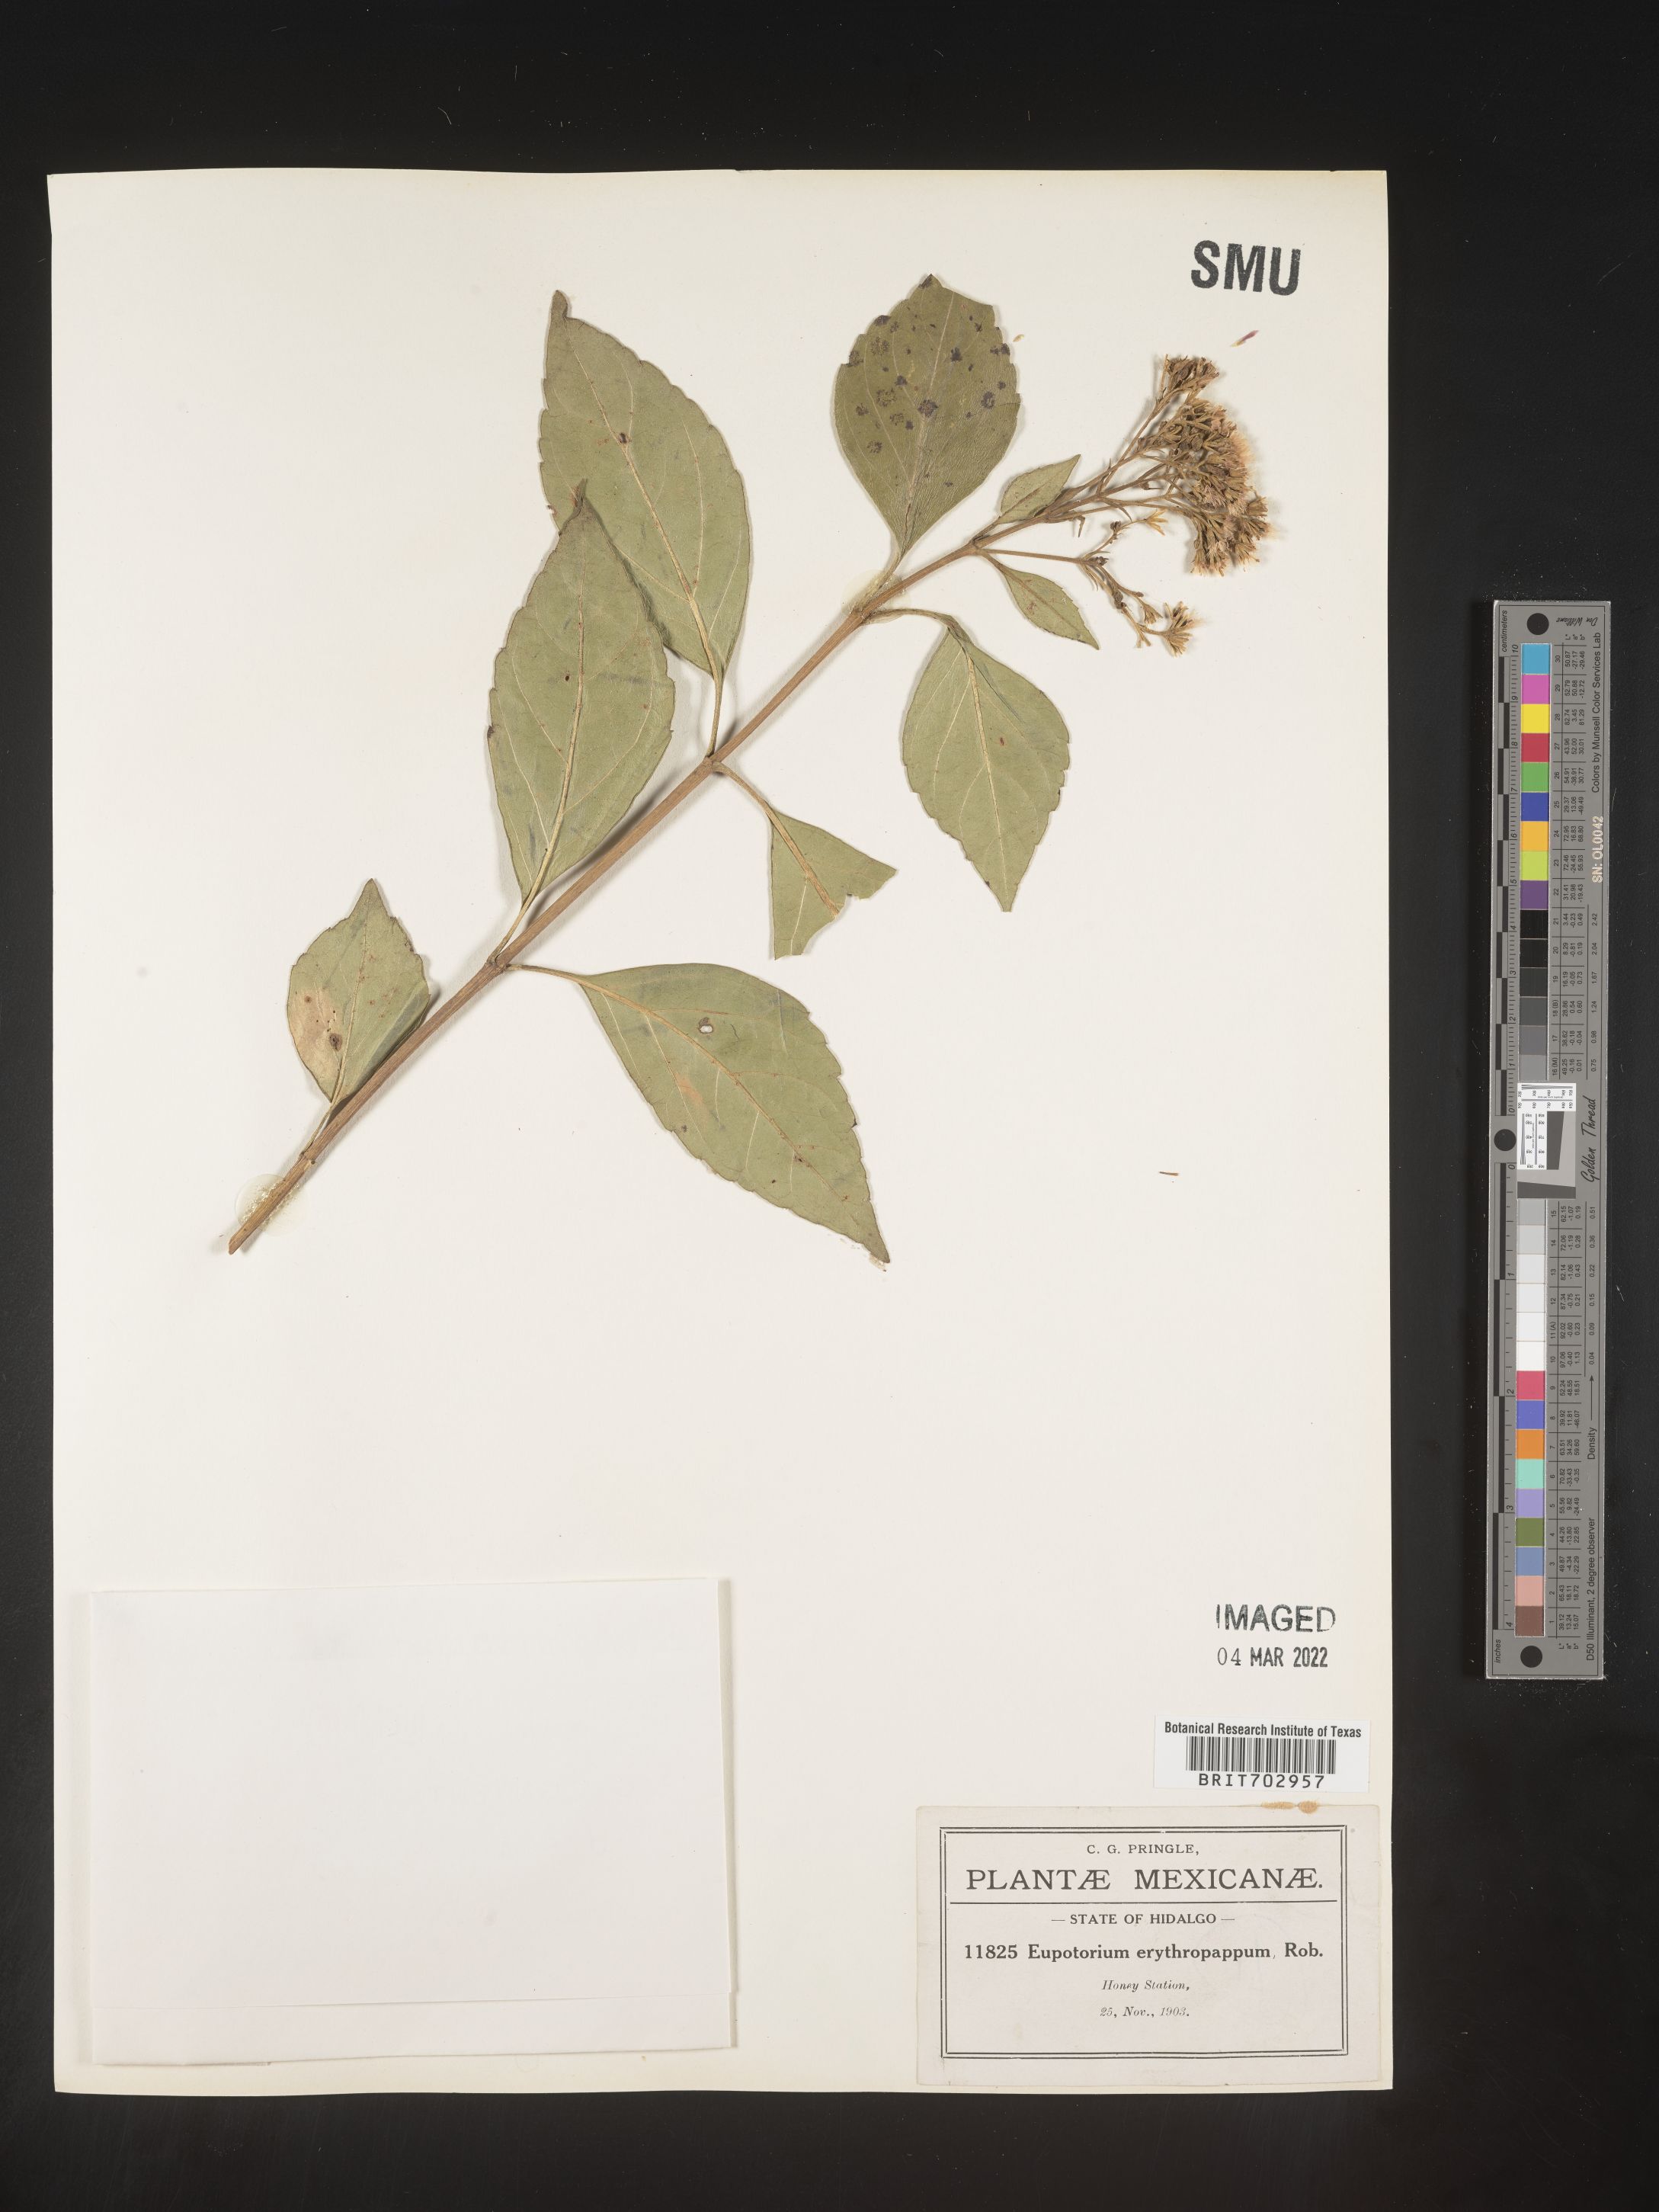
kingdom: Plantae
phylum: Tracheophyta
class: Magnoliopsida
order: Asterales
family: Asteraceae
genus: Eupatorium
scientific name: Eupatorium
